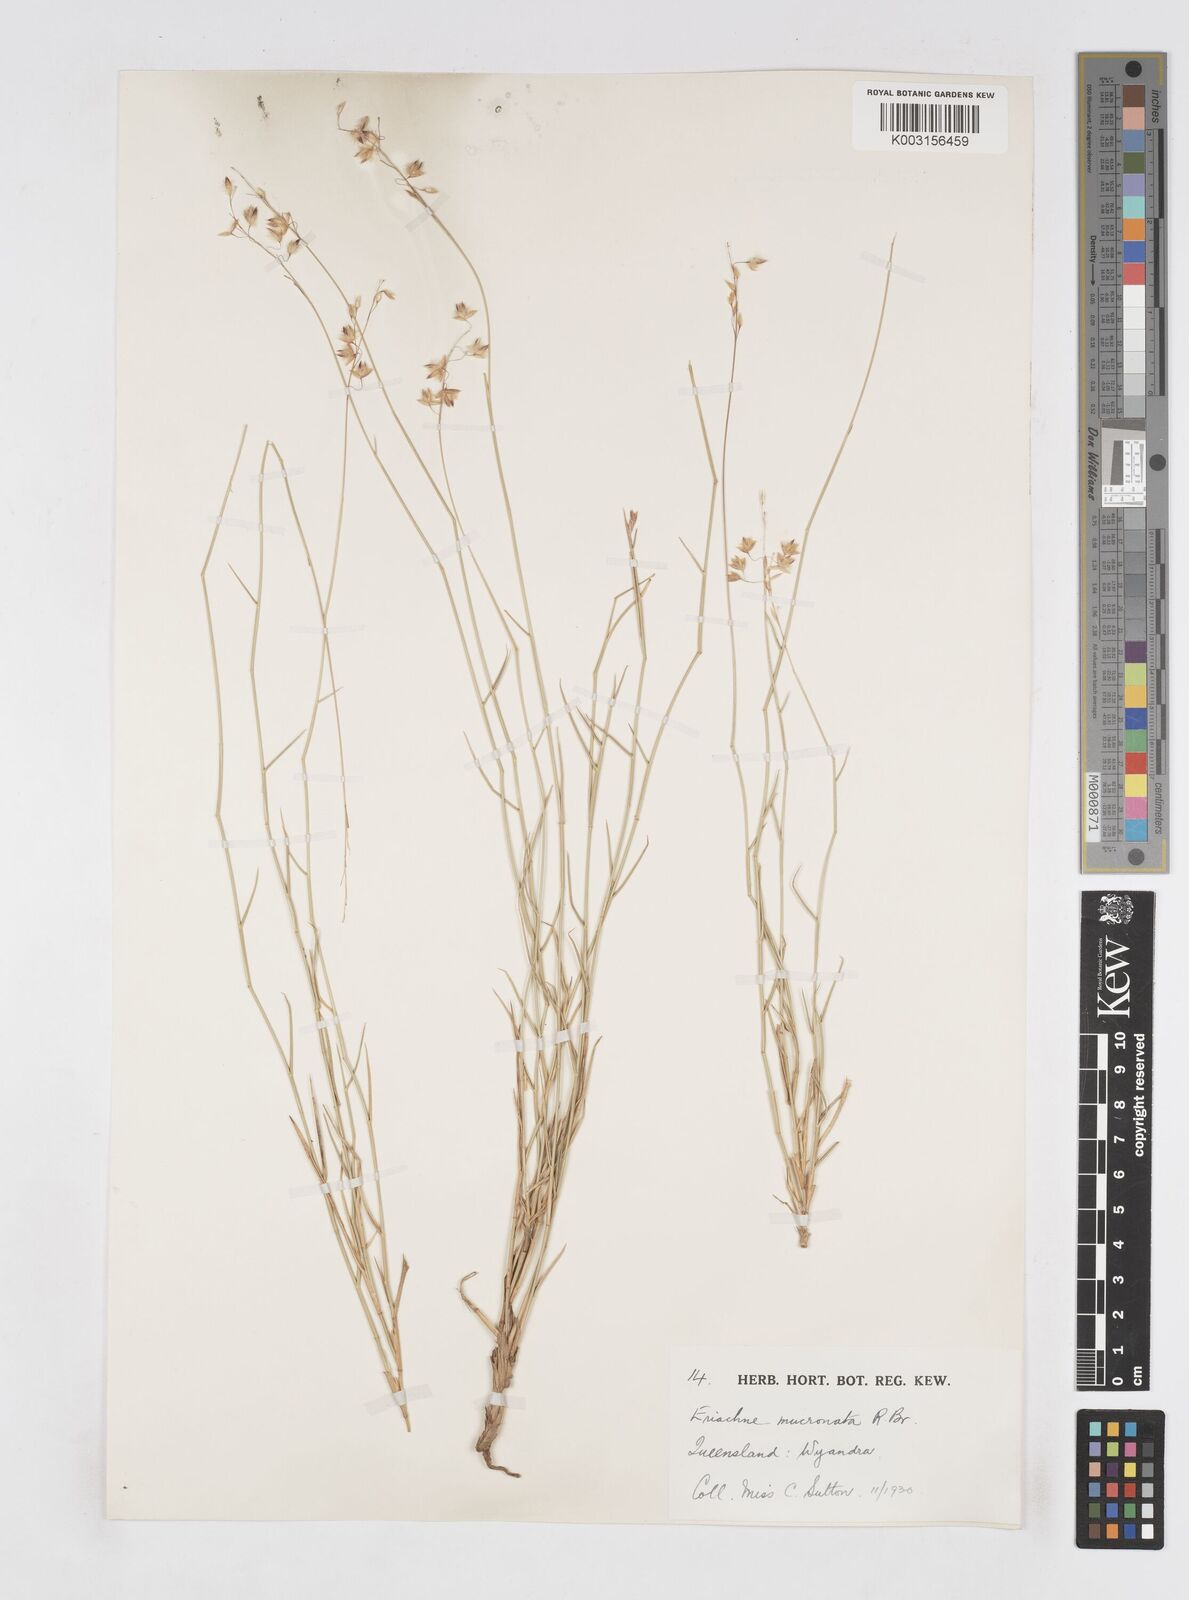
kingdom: Plantae
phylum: Tracheophyta
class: Liliopsida
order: Poales
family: Poaceae
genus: Eriachne
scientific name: Eriachne mucronata
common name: Mountain wanderrie grass
